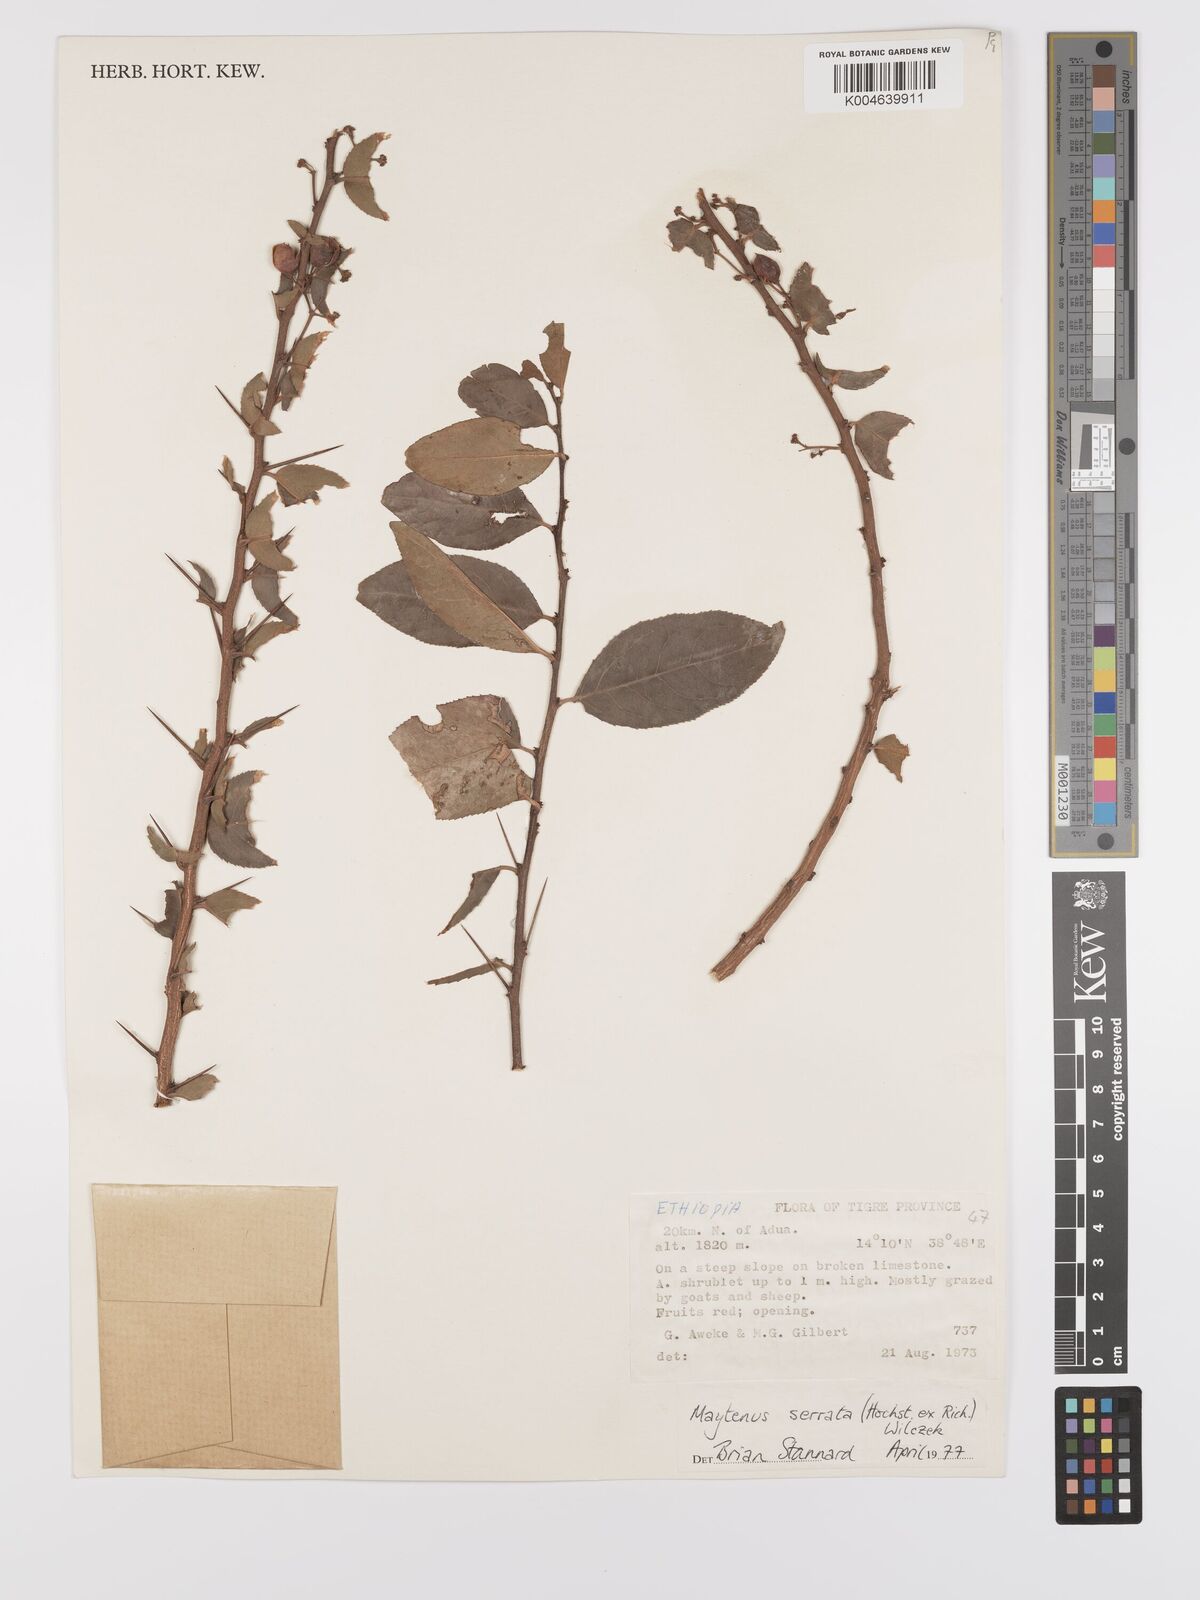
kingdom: Plantae
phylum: Tracheophyta
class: Magnoliopsida
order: Celastrales
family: Celastraceae
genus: Gymnosporia
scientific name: Gymnosporia serrata
